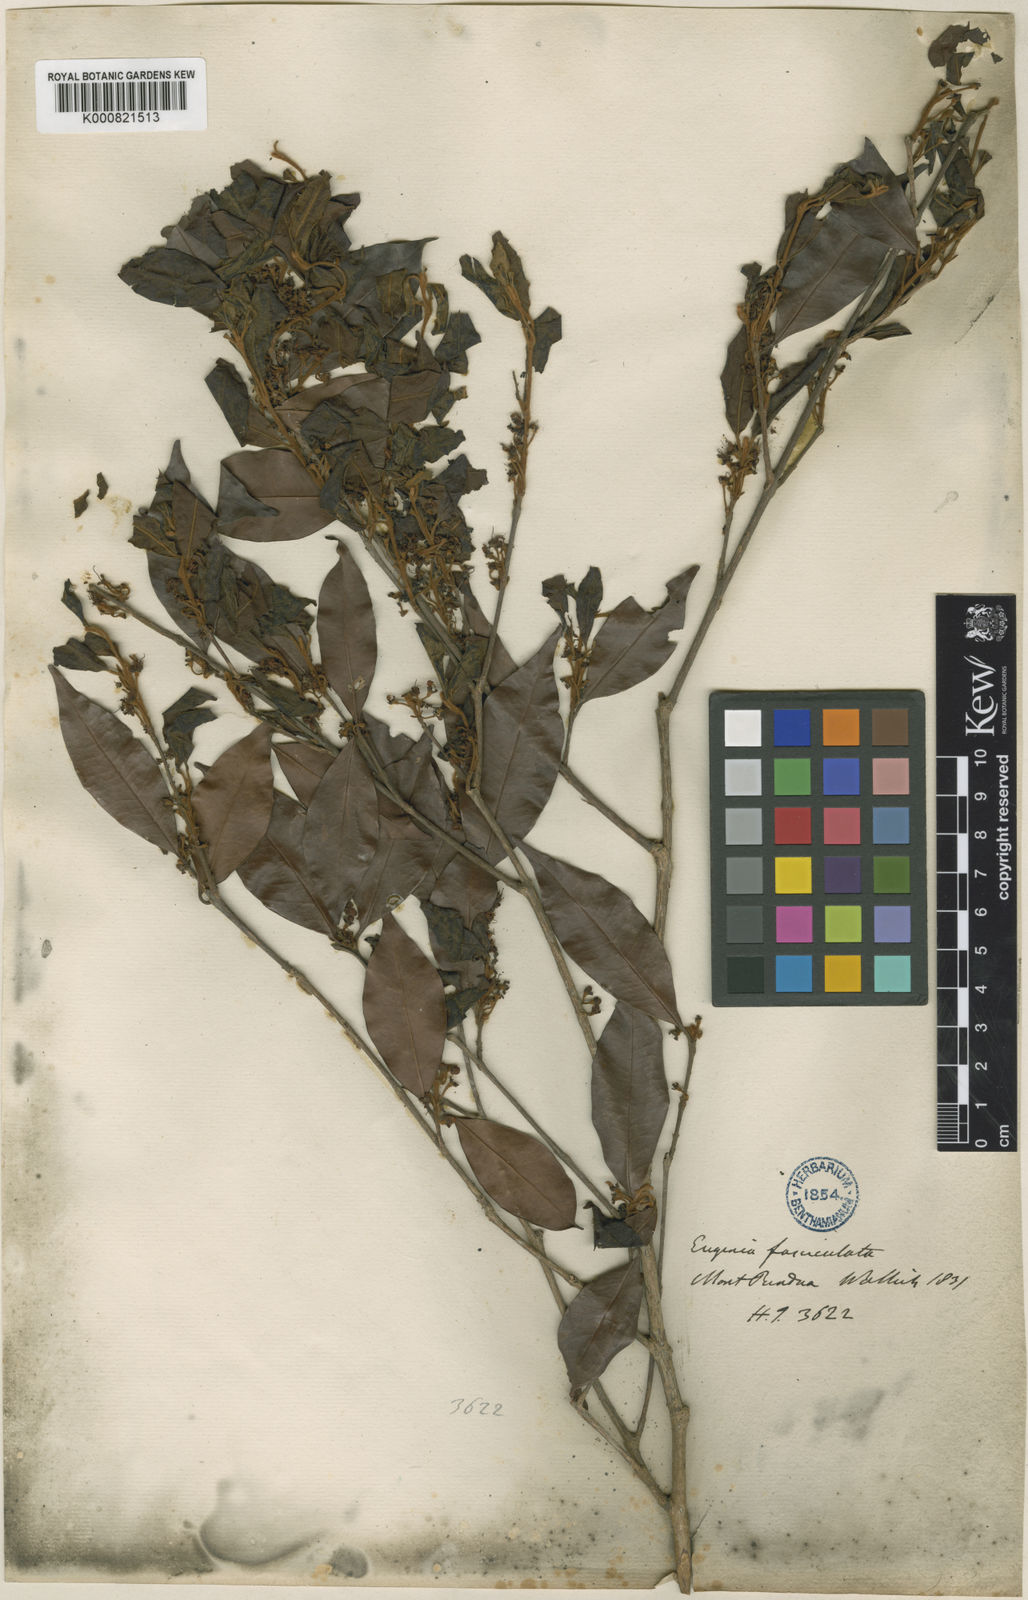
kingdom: Plantae
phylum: Tracheophyta
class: Magnoliopsida
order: Myrtales
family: Myrtaceae
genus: Eugenia
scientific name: Eugenia roxburghii
